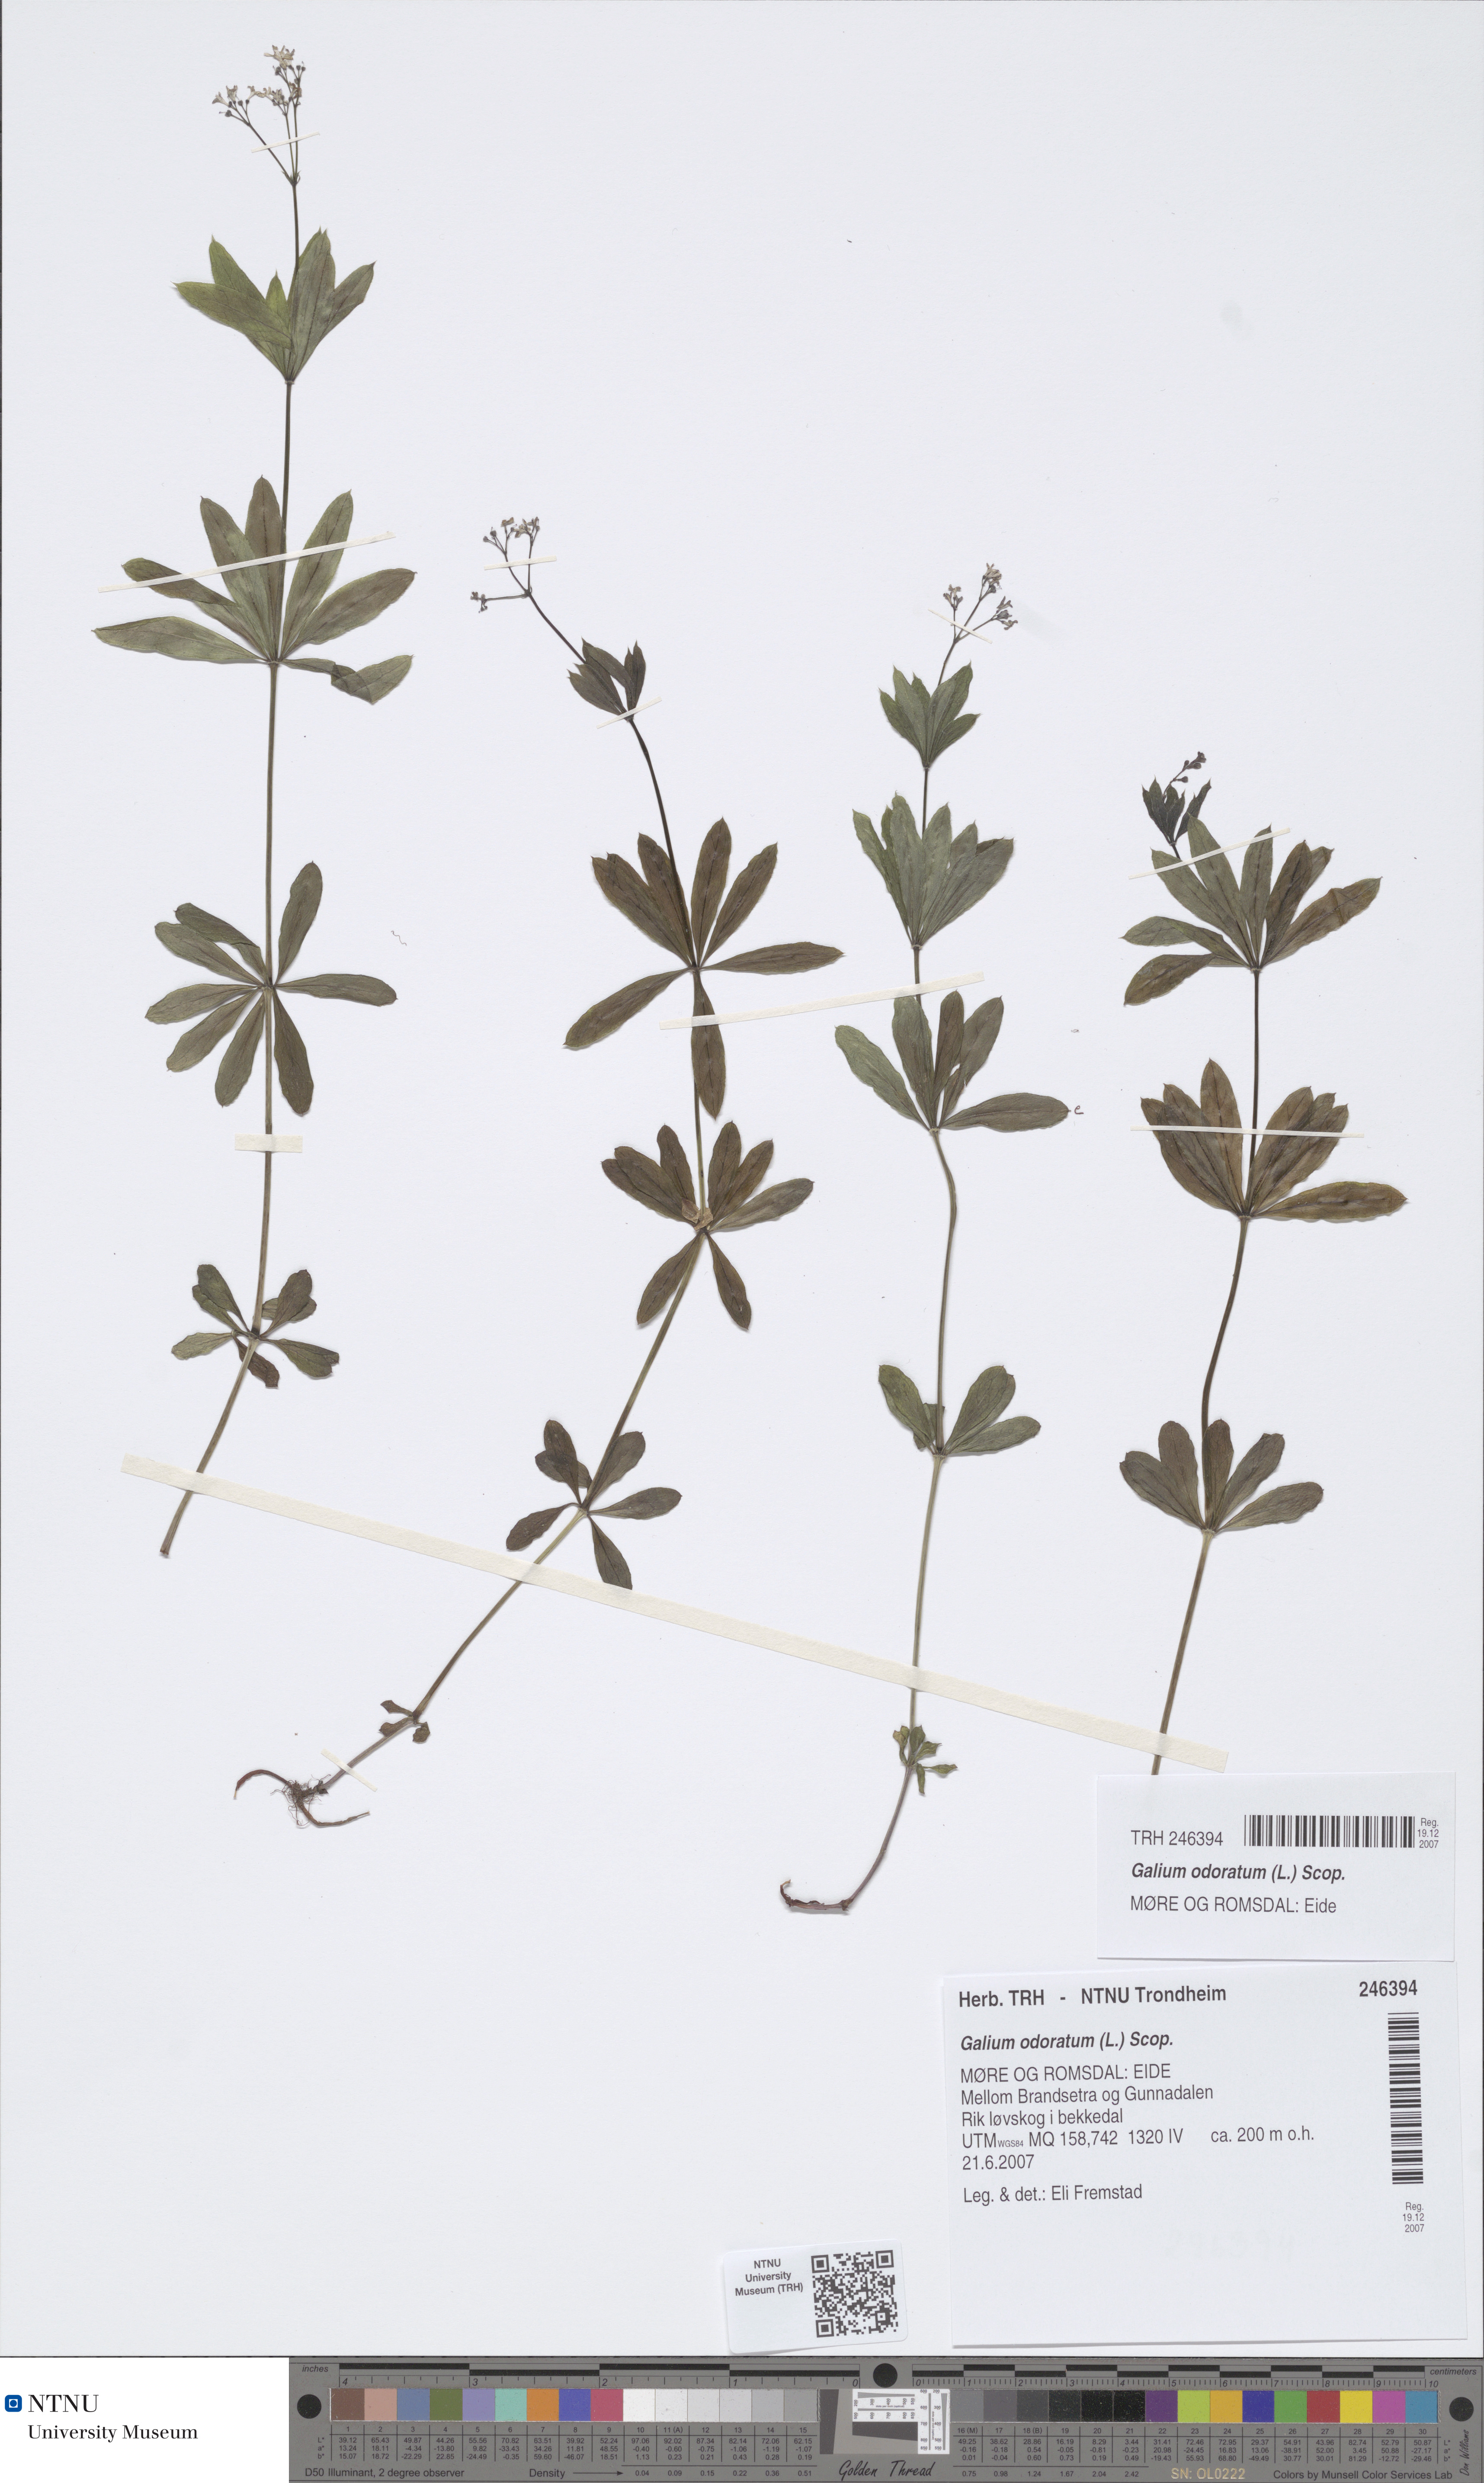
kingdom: Plantae
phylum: Tracheophyta
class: Magnoliopsida
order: Gentianales
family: Rubiaceae
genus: Galium
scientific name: Galium odoratum
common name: Sweet woodruff
